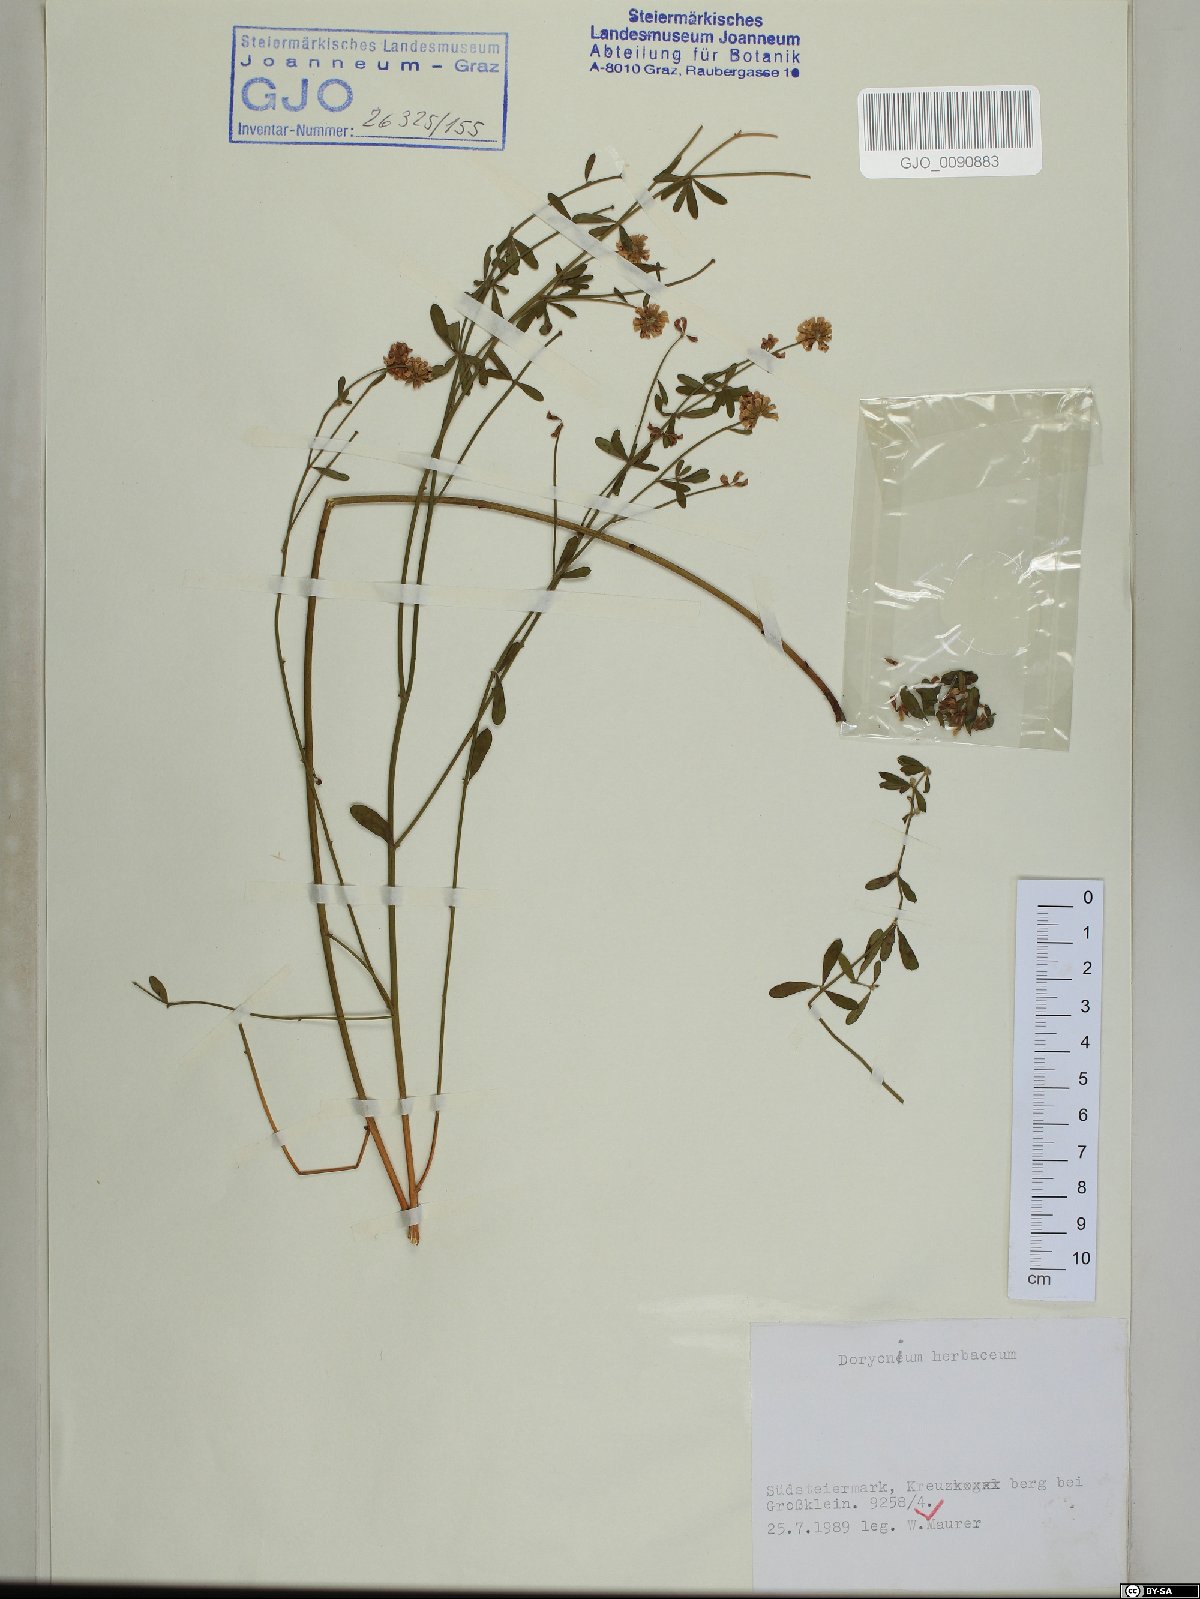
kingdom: Plantae
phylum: Tracheophyta
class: Magnoliopsida
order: Fabales
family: Fabaceae
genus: Lotus
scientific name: Lotus herbaceus
